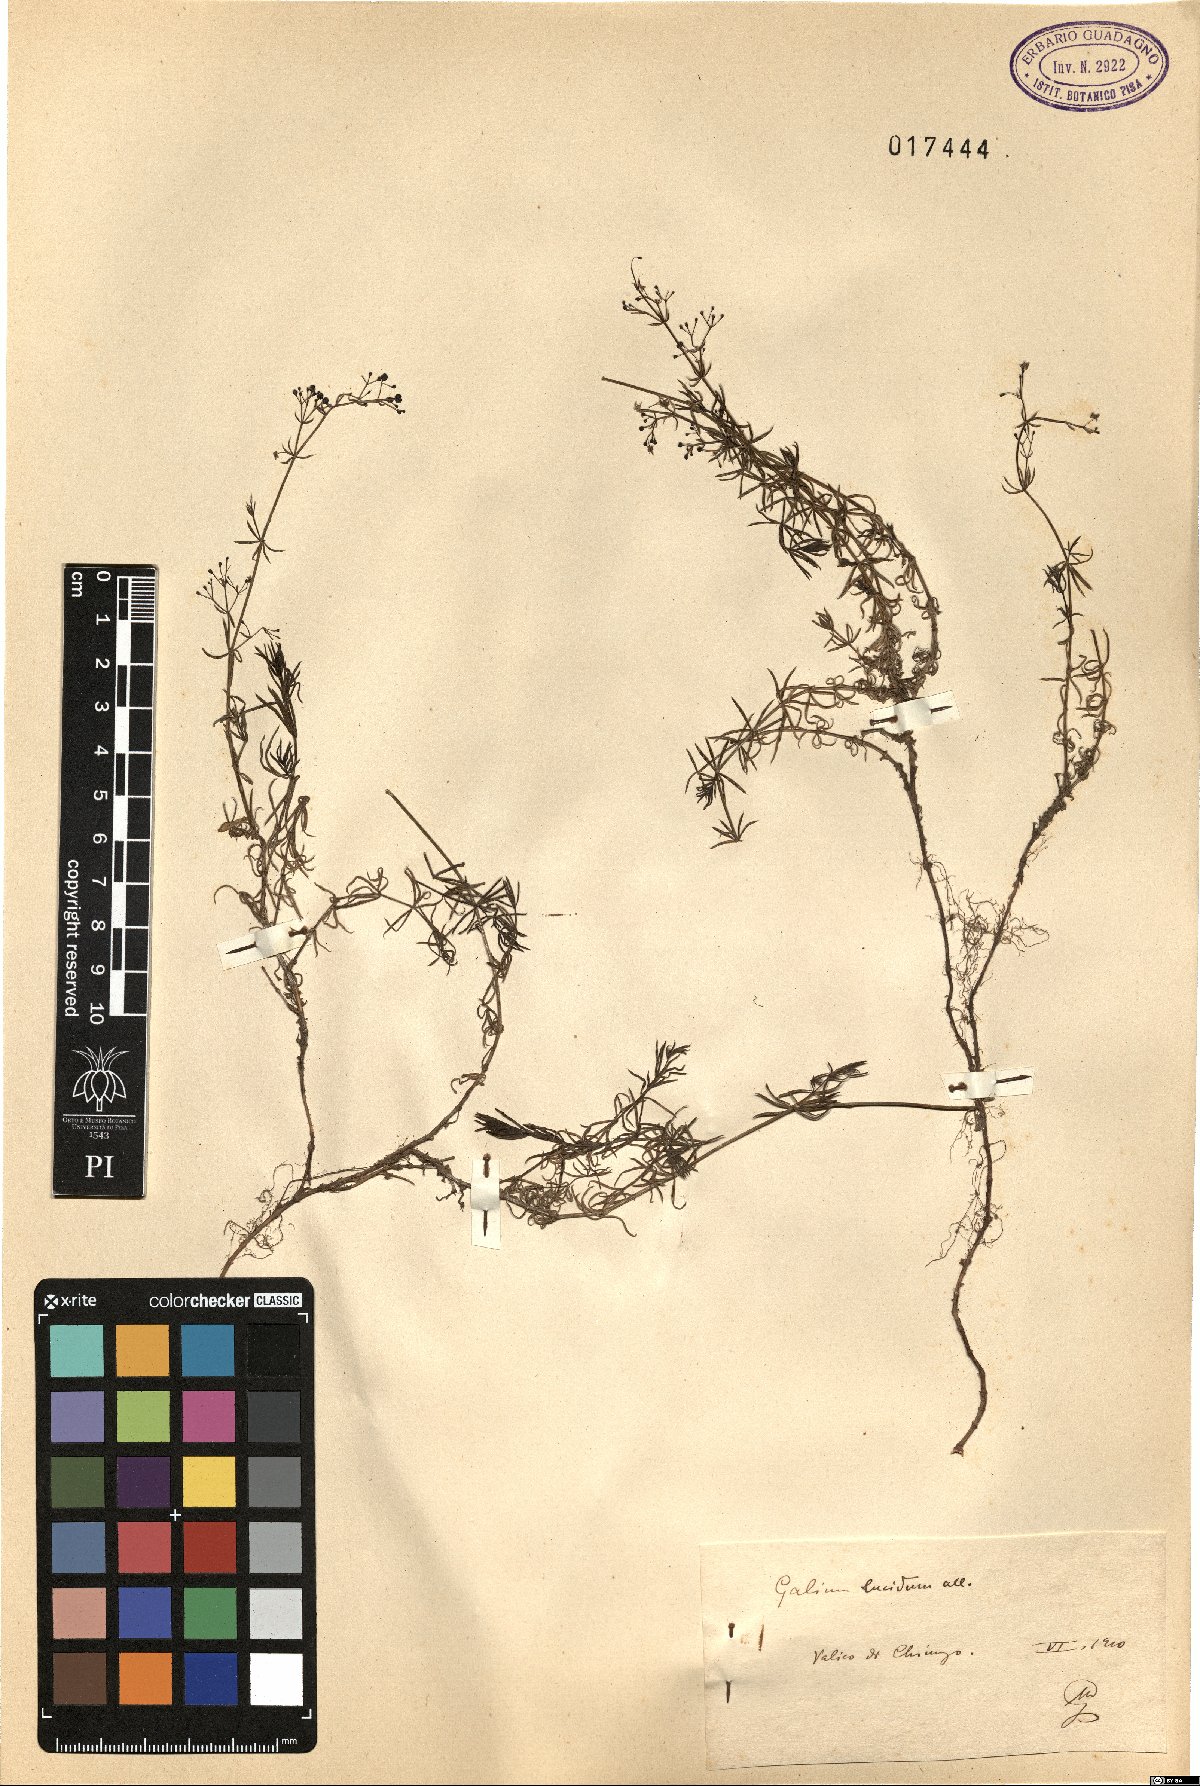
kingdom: Plantae
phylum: Tracheophyta
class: Magnoliopsida
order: Gentianales
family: Rubiaceae
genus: Galium
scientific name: Galium lucidum
